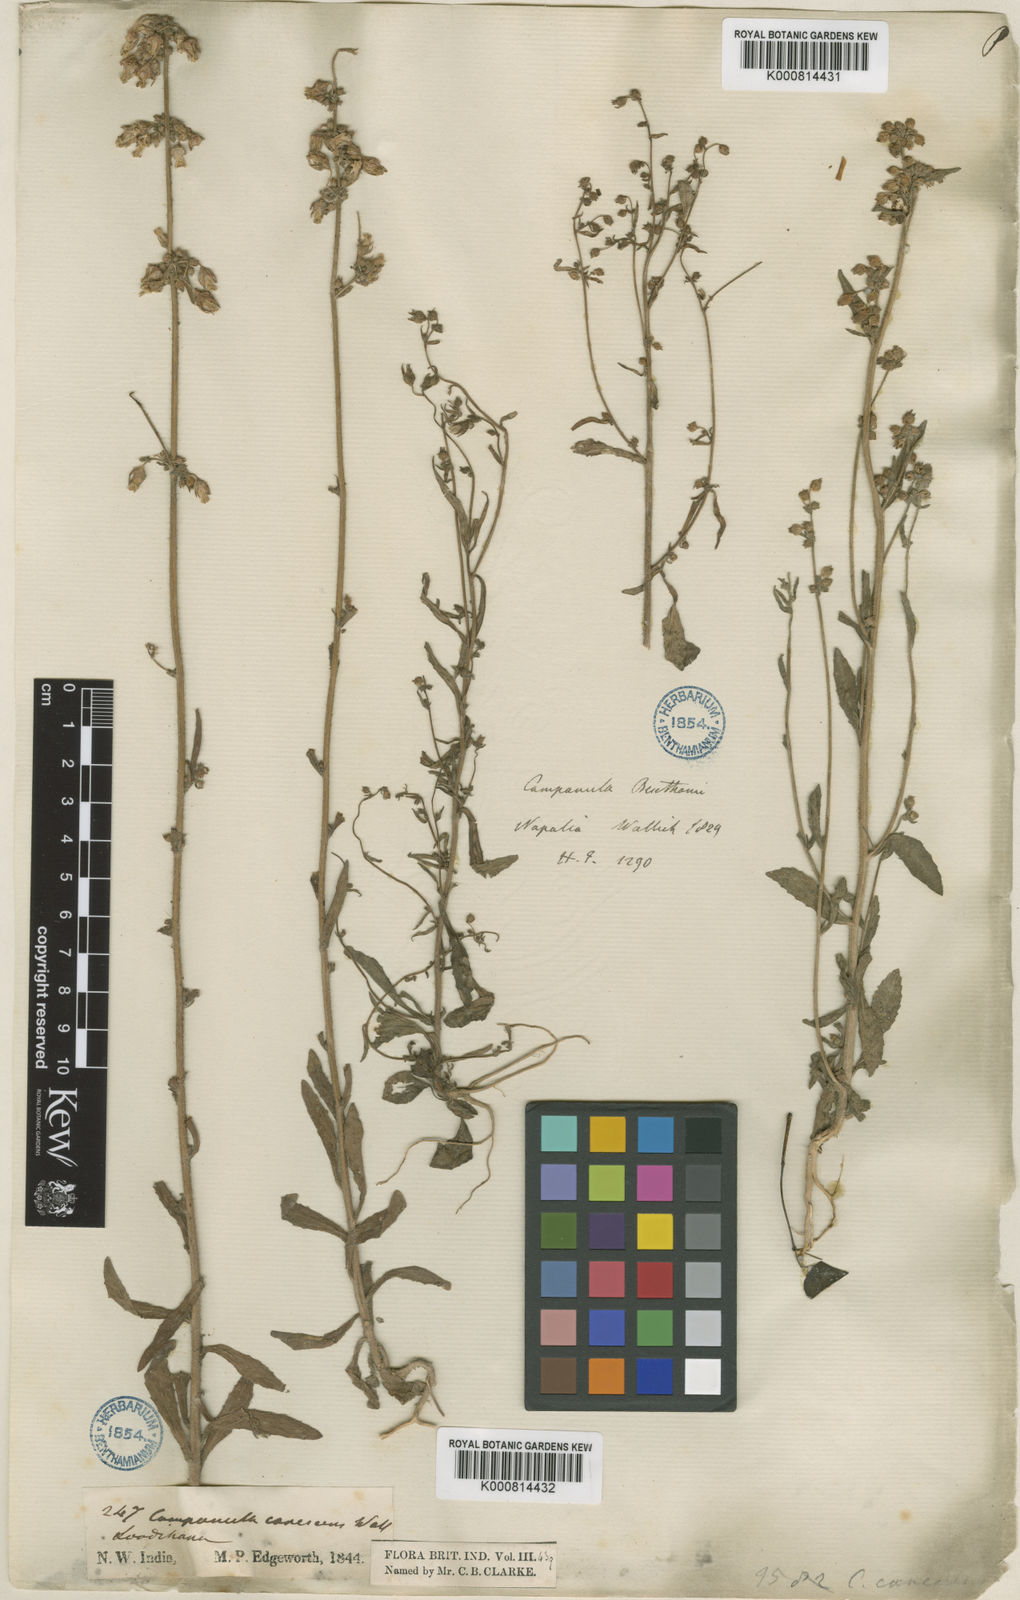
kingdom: Plantae
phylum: Tracheophyta
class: Magnoliopsida
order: Asterales
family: Campanulaceae
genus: Campanula
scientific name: Campanula
